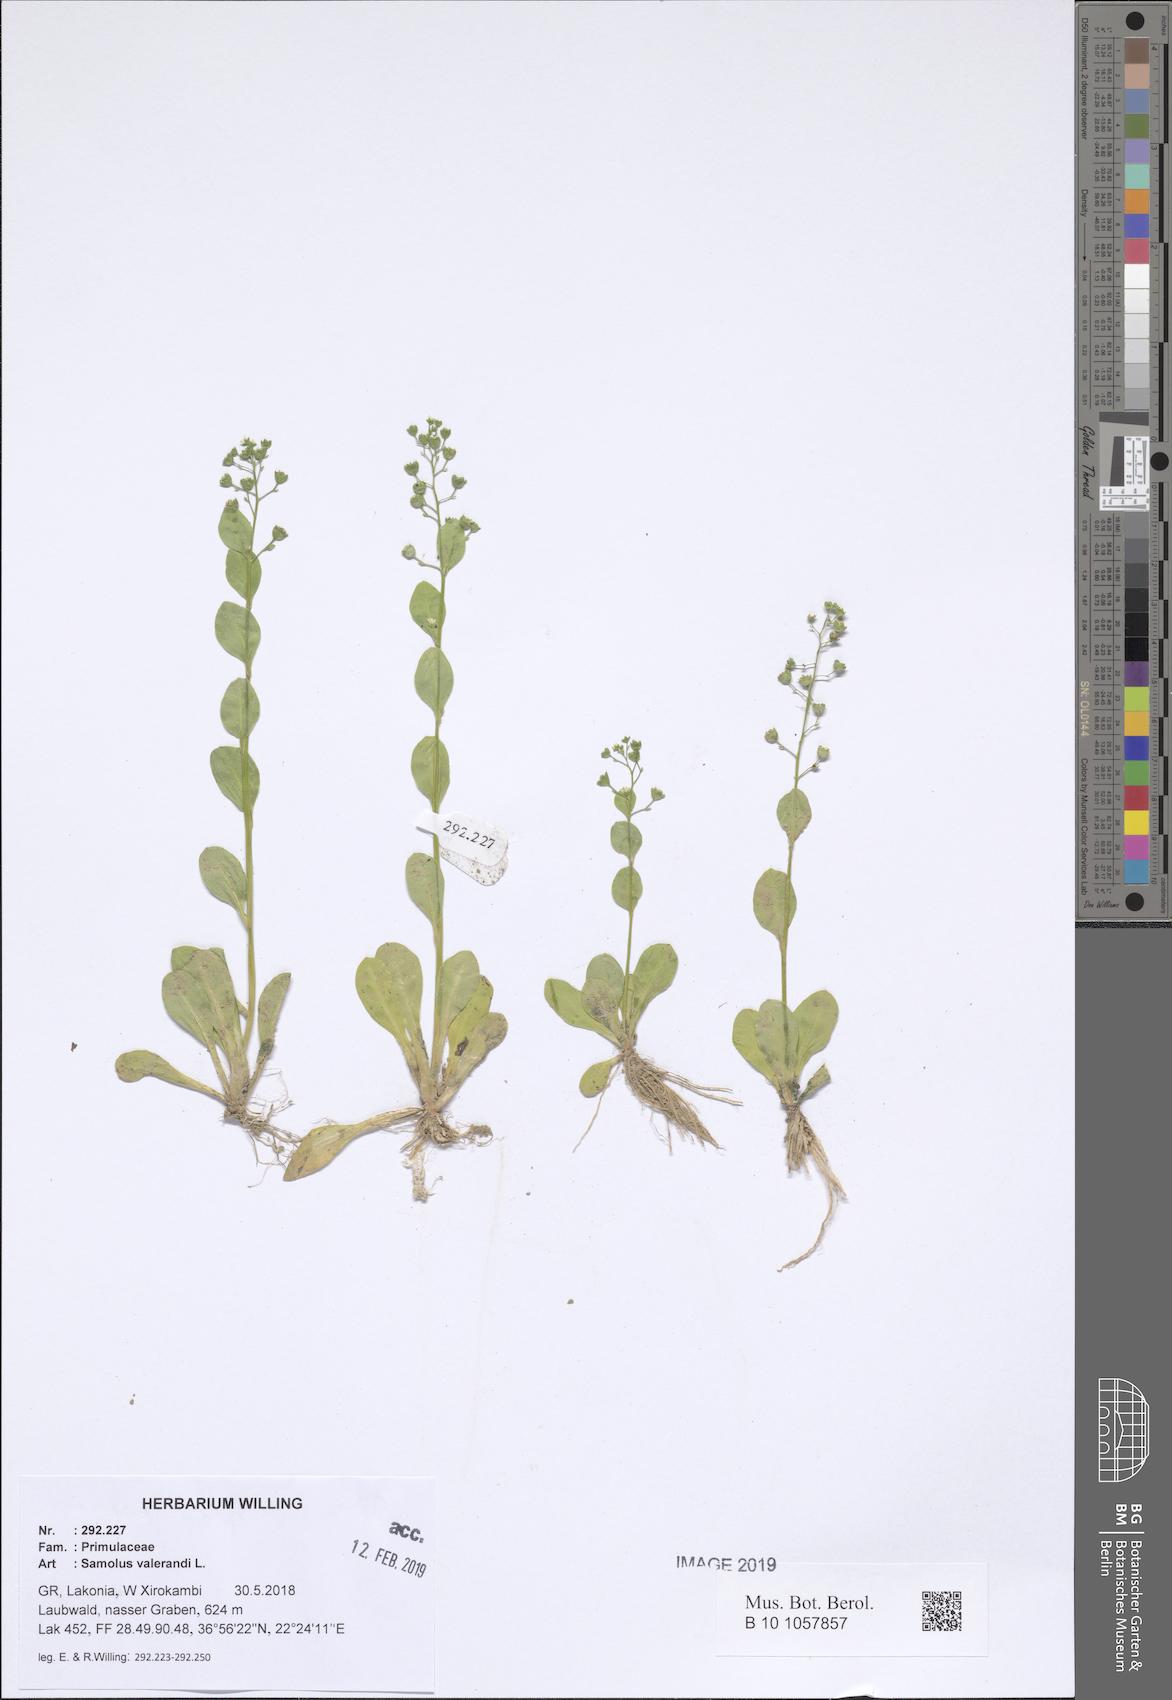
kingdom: Plantae
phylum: Tracheophyta
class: Magnoliopsida
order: Ericales
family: Primulaceae
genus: Samolus
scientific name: Samolus valerandi
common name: Brookweed
